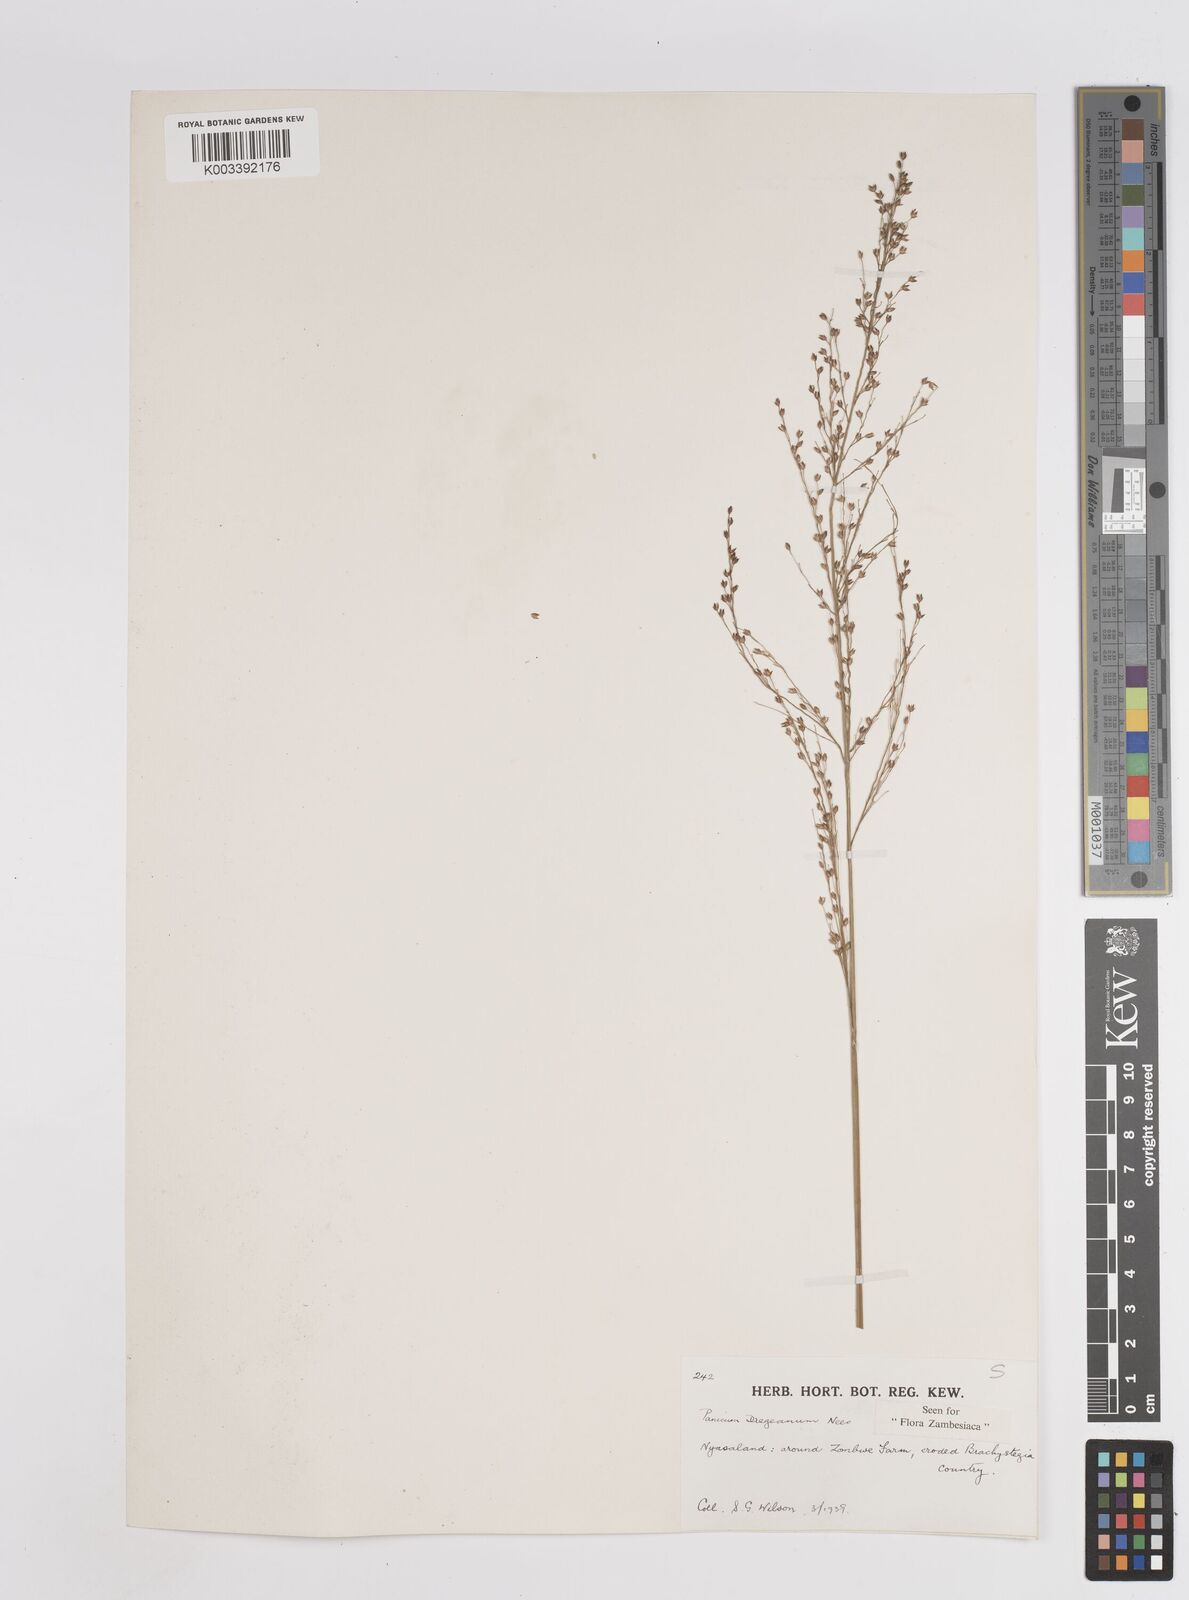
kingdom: Plantae
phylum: Tracheophyta
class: Liliopsida
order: Poales
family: Poaceae
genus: Panicum
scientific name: Panicum dregeanum
